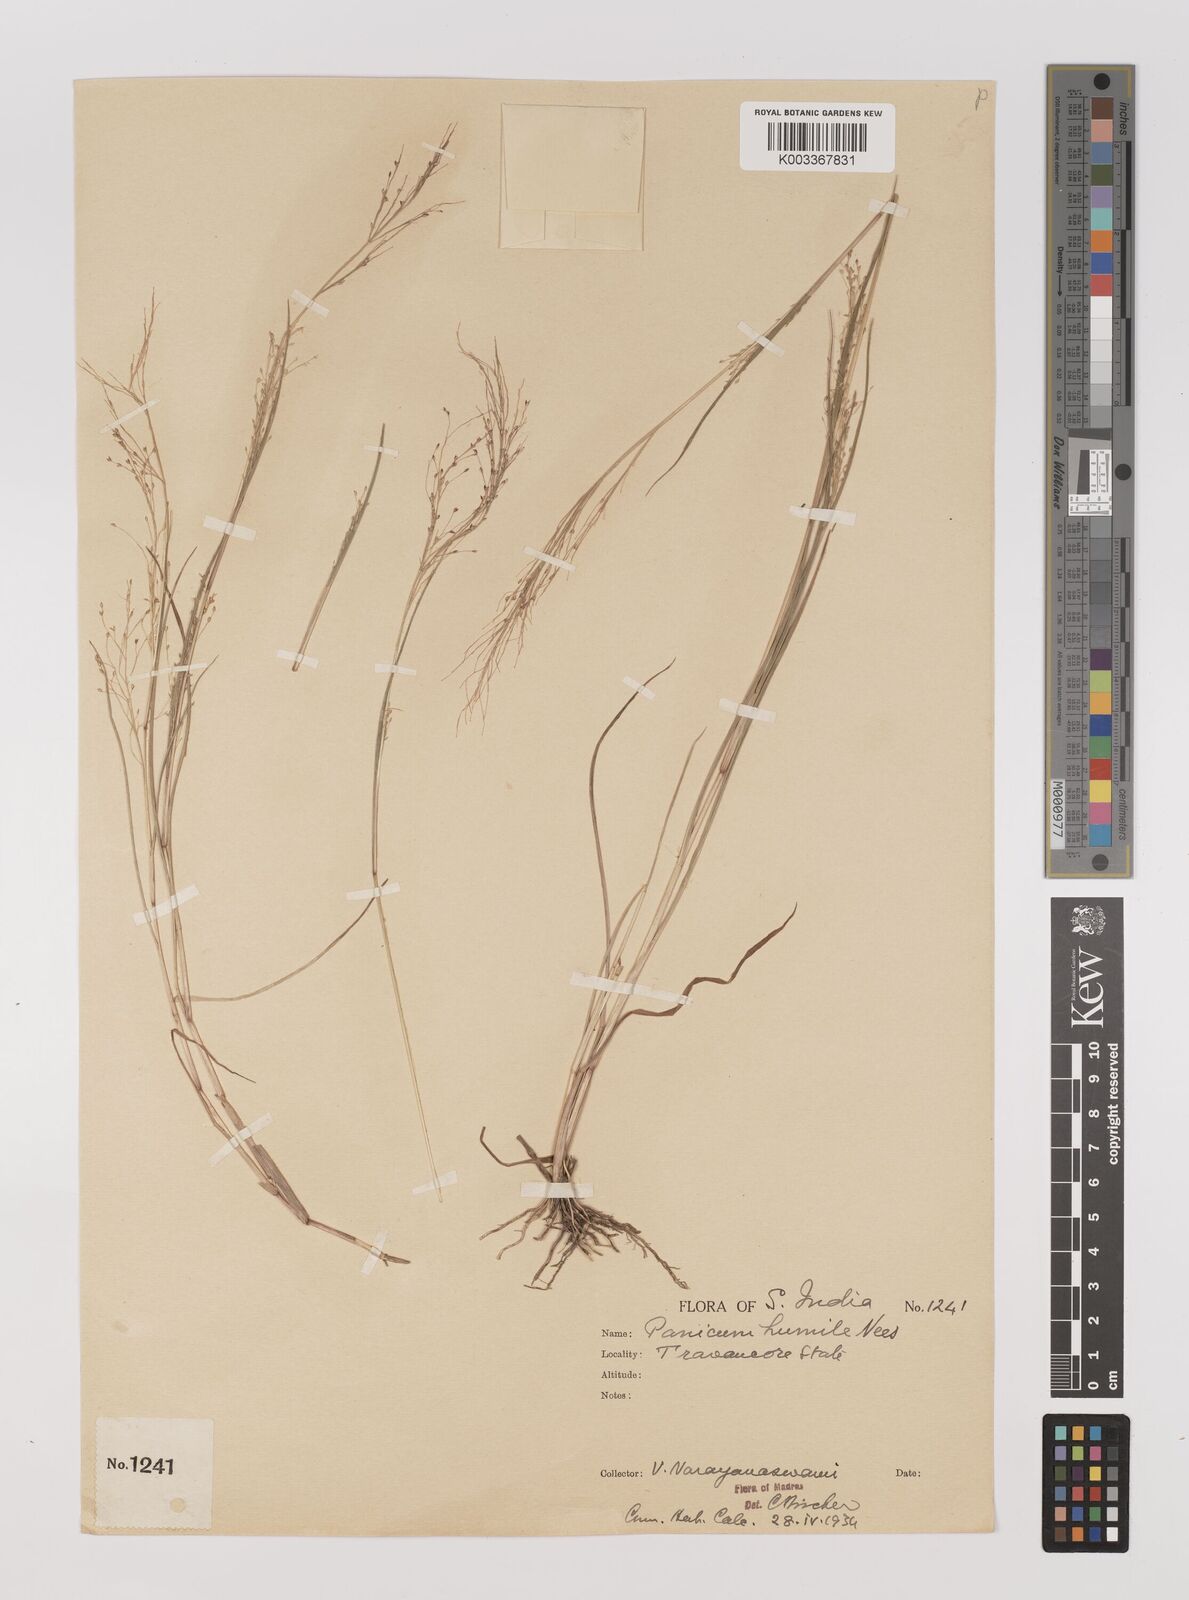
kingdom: Plantae
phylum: Tracheophyta
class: Liliopsida
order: Poales
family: Poaceae
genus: Panicum
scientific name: Panicum humile
